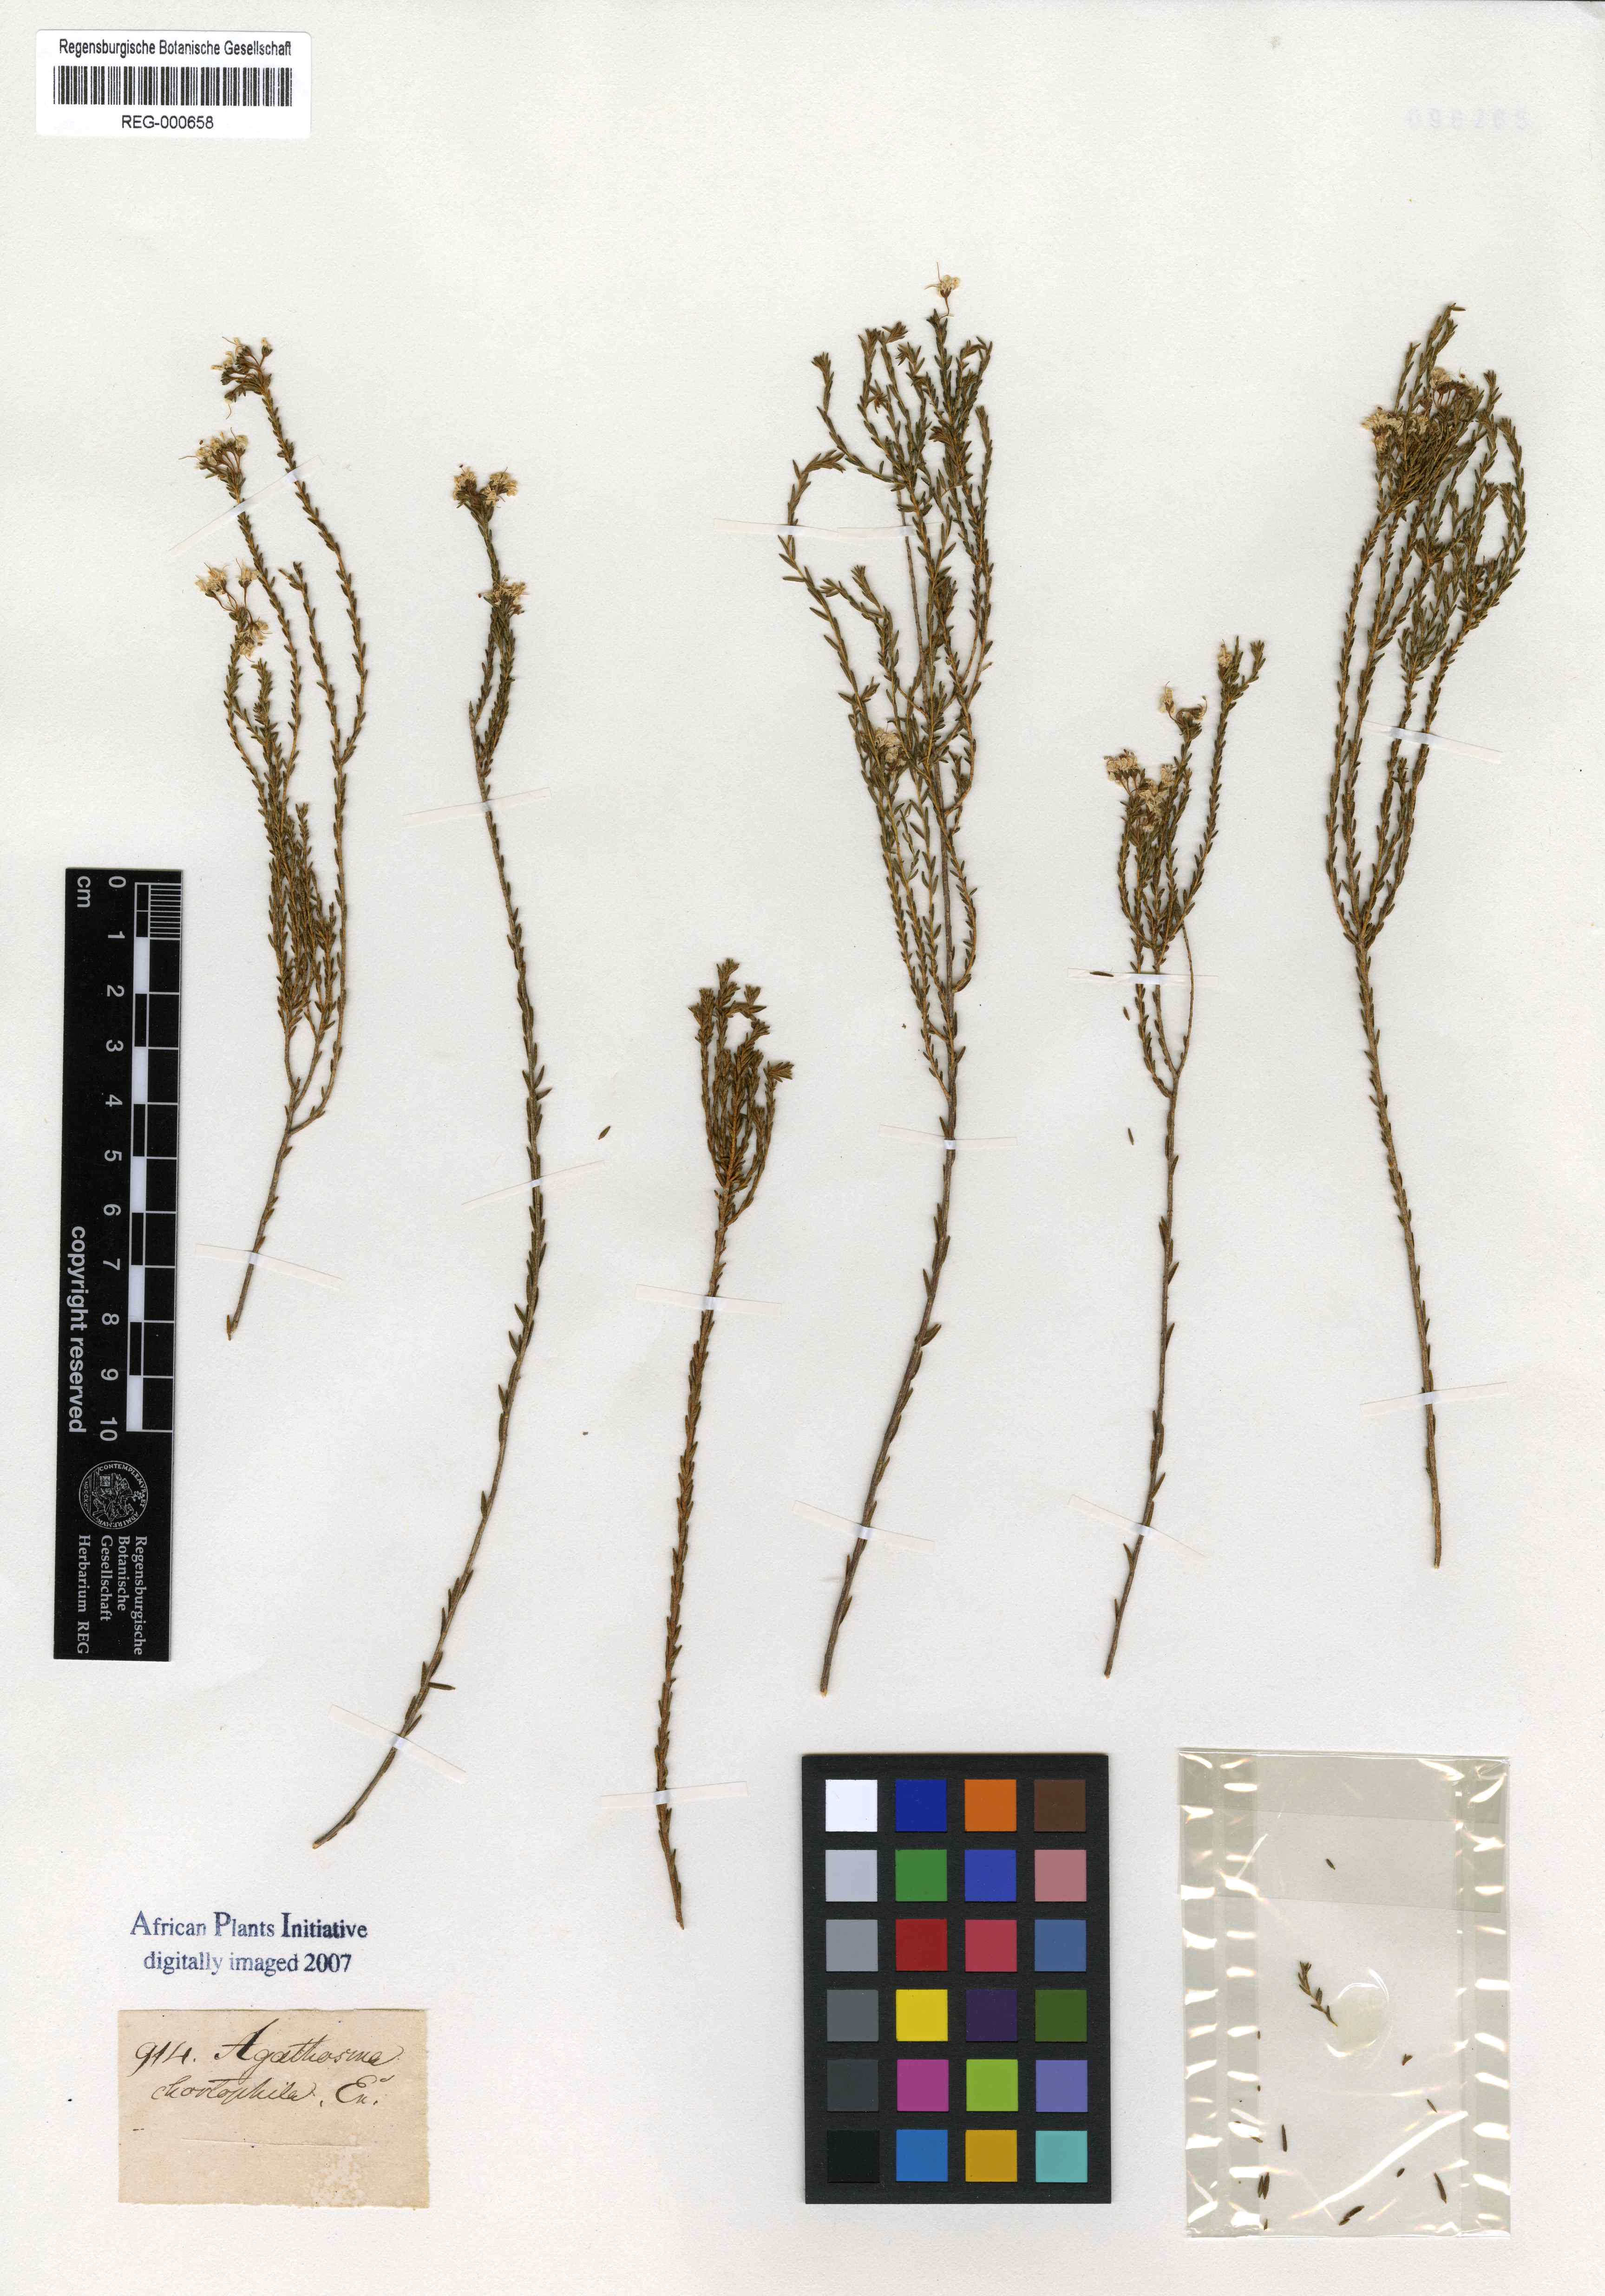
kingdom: Plantae
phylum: Tracheophyta
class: Magnoliopsida
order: Sapindales
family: Rutaceae
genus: Agathosma
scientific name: Agathosma capensis
